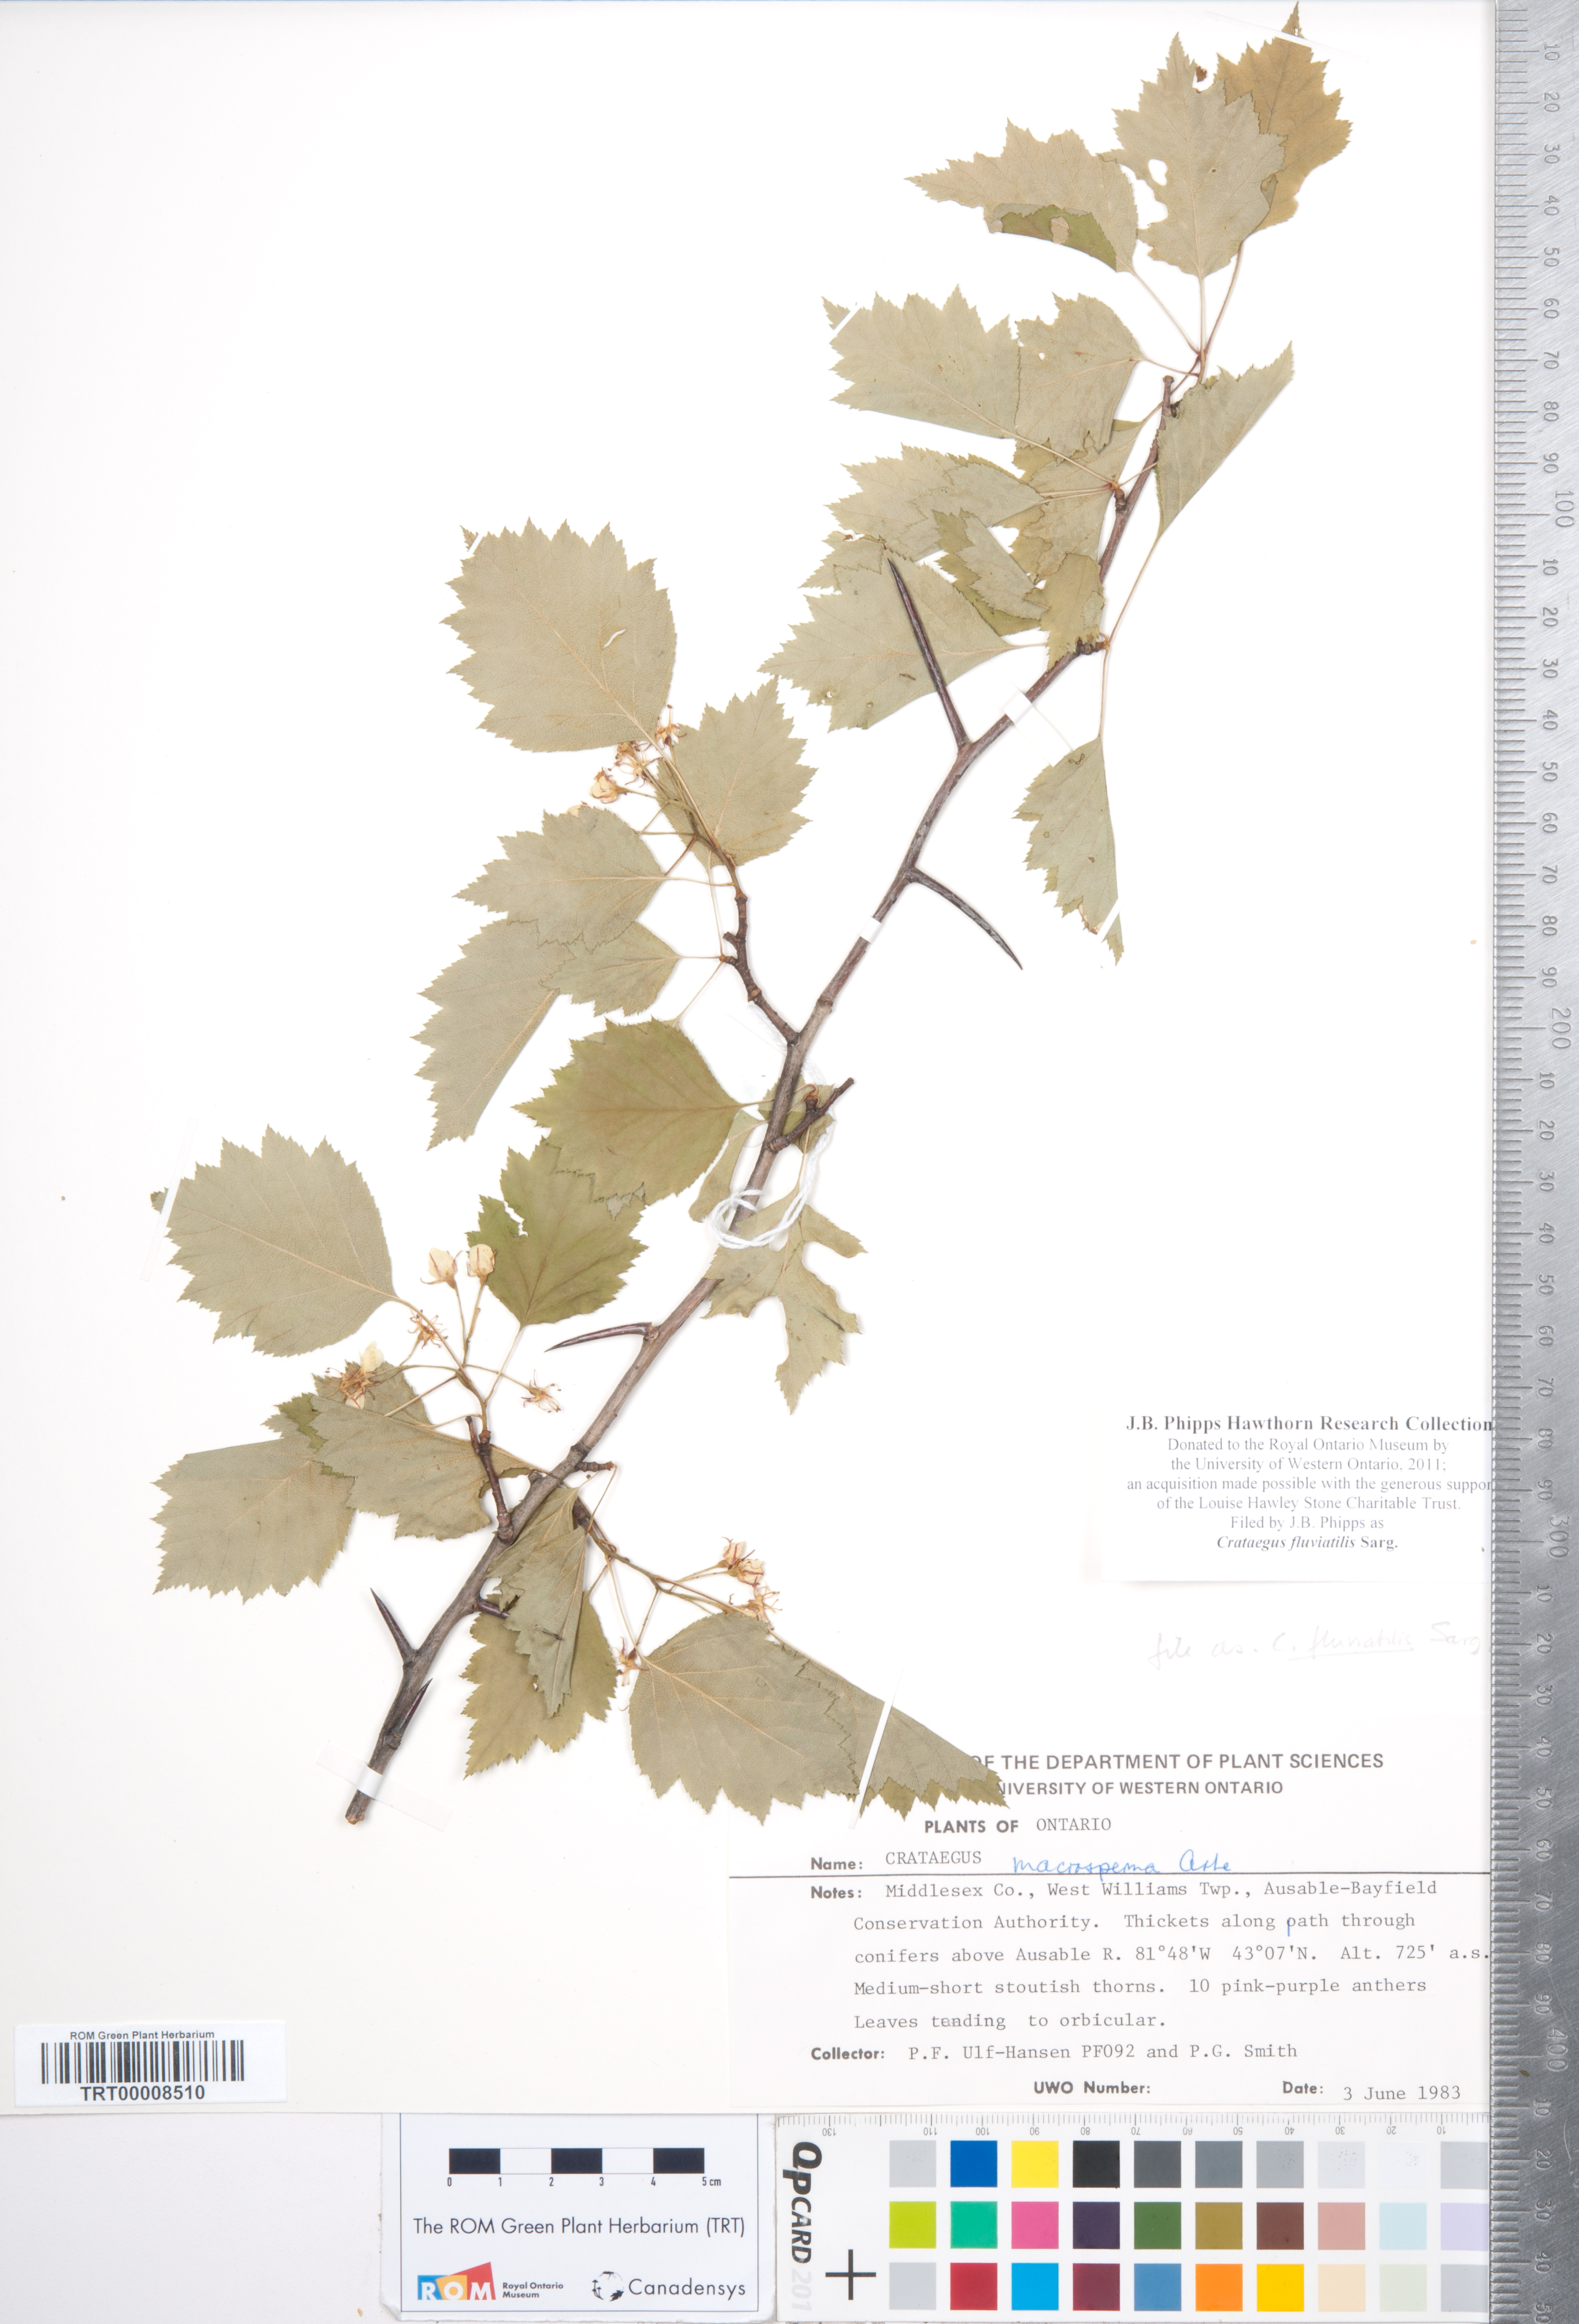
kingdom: Plantae
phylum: Tracheophyta
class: Magnoliopsida
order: Rosales
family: Rosaceae
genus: Crataegus
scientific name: Crataegus fluviatilis
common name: Fort sheridan hawthorn
